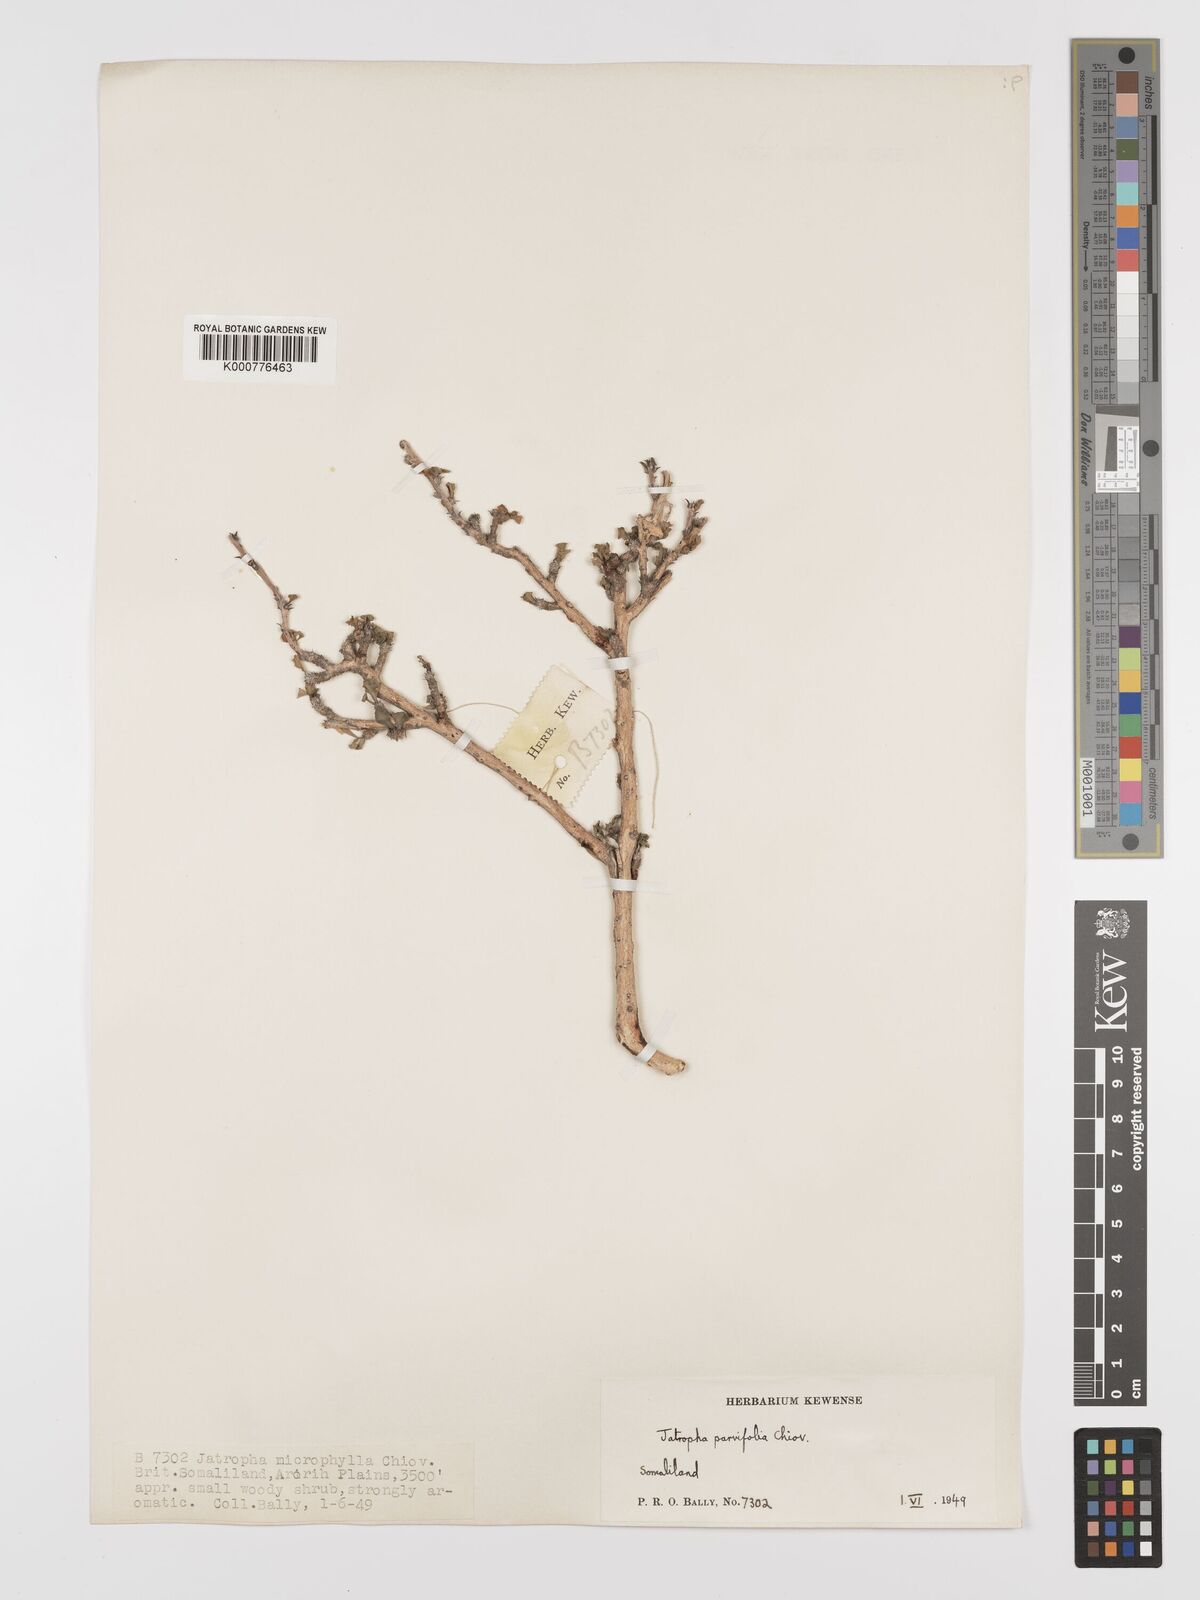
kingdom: Plantae
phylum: Tracheophyta
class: Magnoliopsida
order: Malpighiales
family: Euphorbiaceae
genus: Jatropha
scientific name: Jatropha rivae
